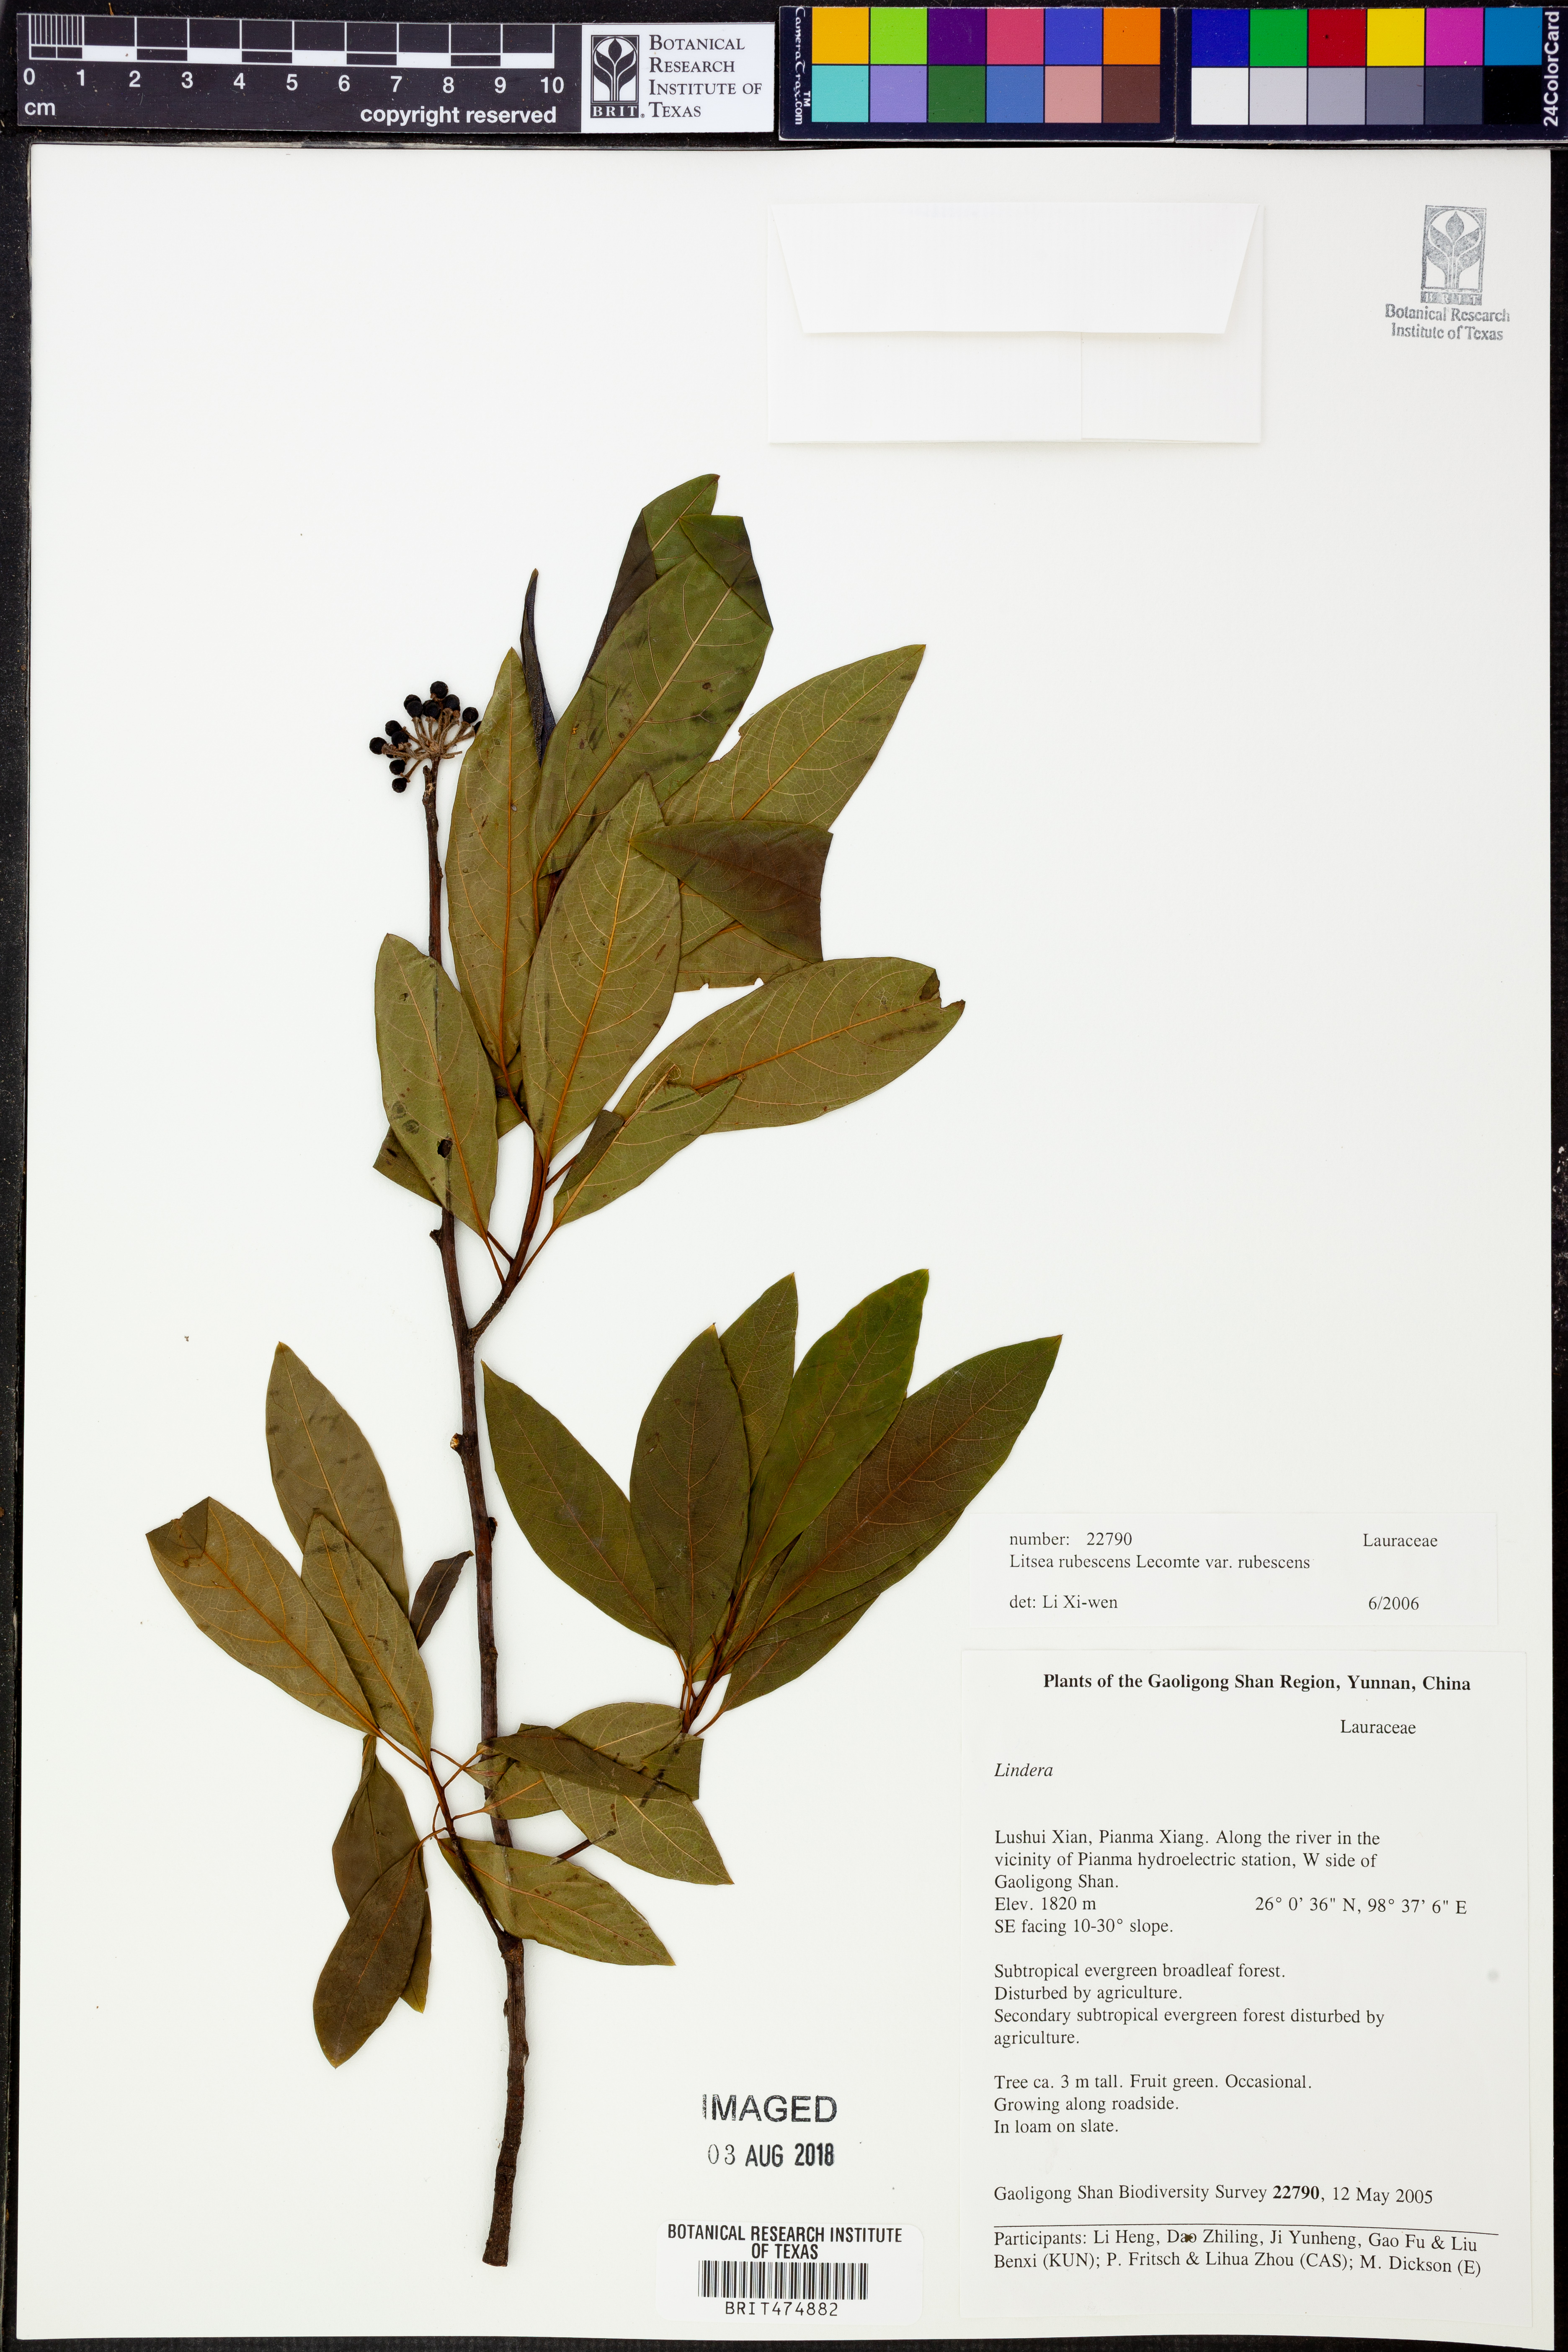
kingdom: Plantae
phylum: Tracheophyta
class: Magnoliopsida
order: Laurales
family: Lauraceae
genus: Litsea
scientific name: Litsea rubescens
